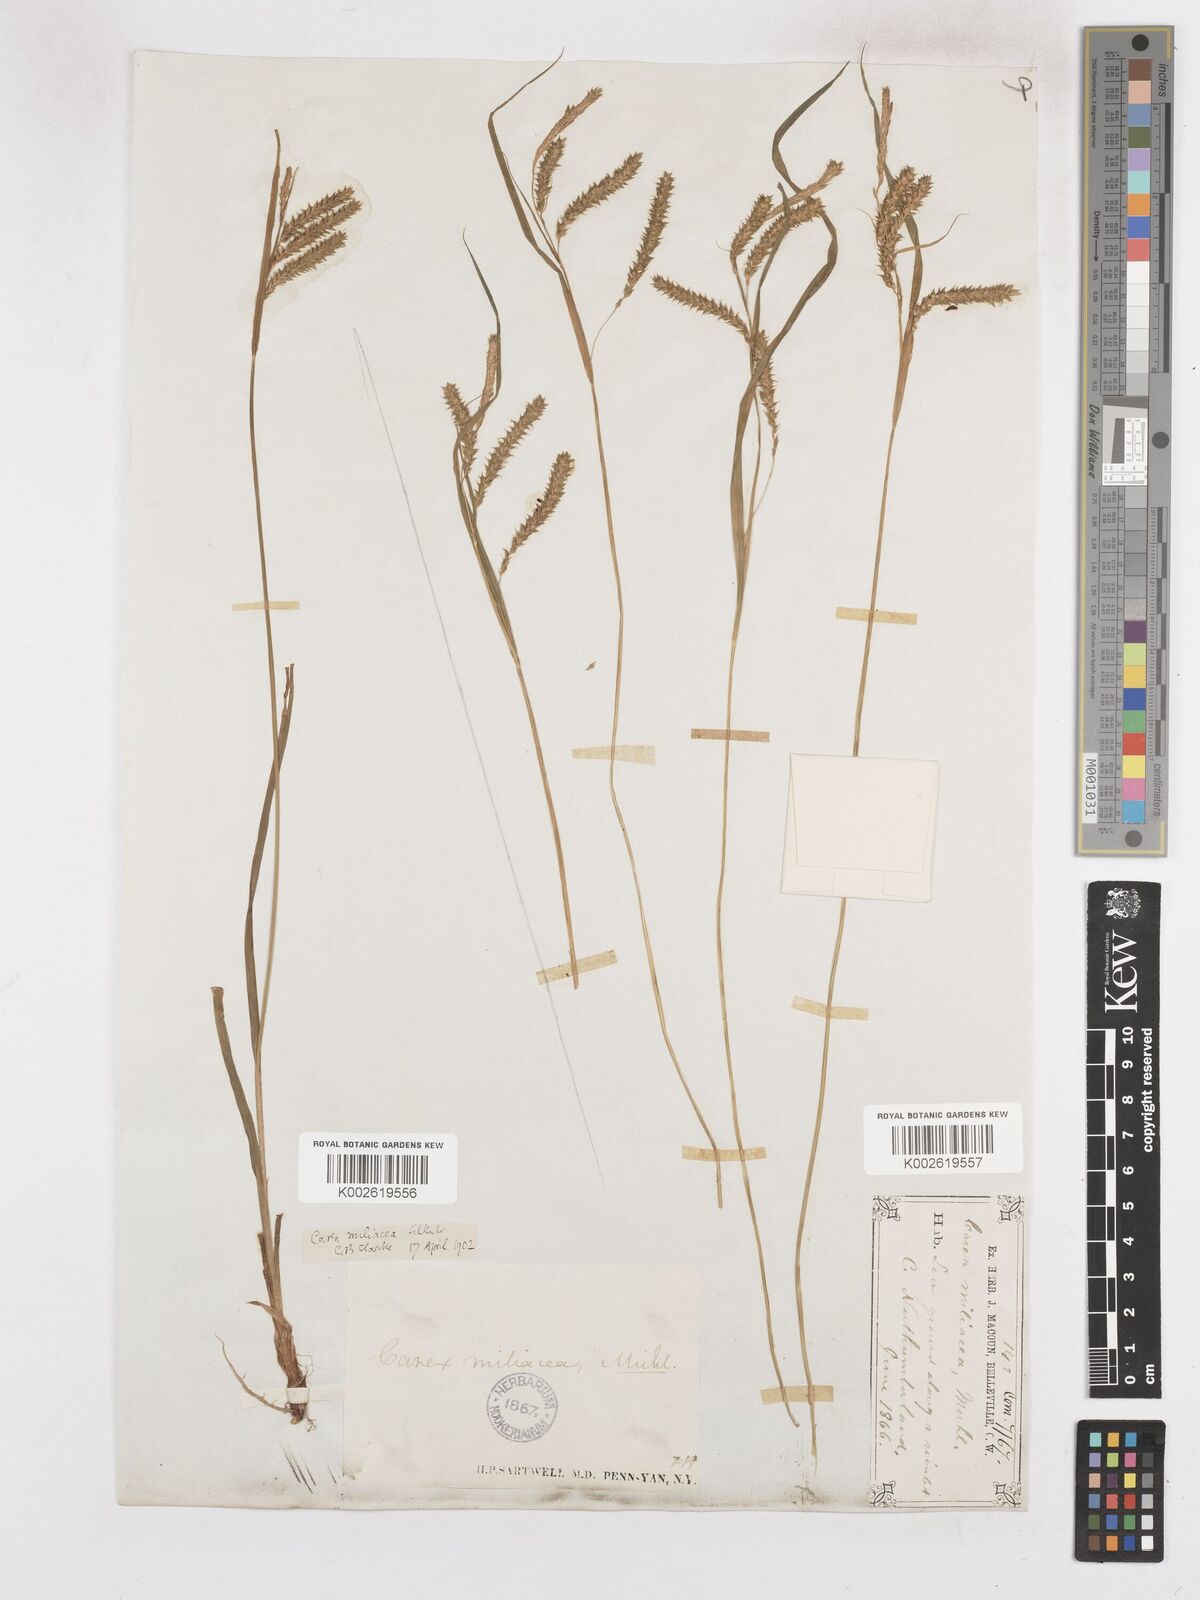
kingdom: Plantae
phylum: Tracheophyta
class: Liliopsida
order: Poales
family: Cyperaceae
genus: Carex
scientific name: Carex prasina
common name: Drooping sedge
